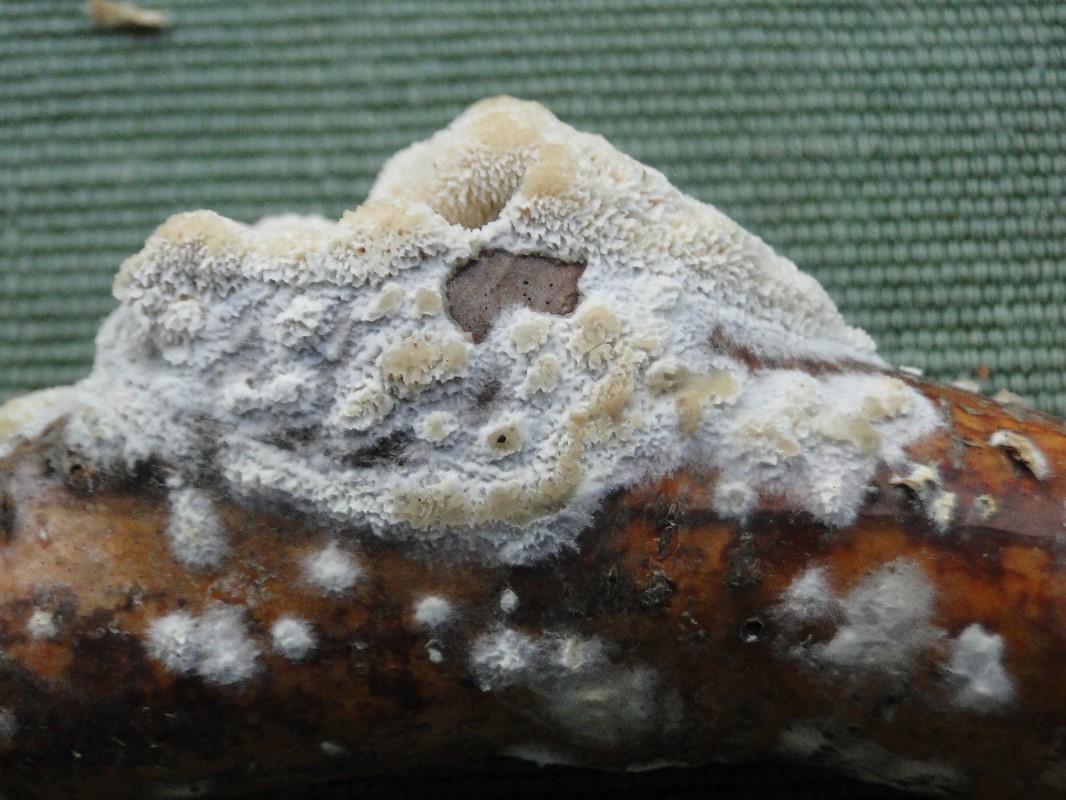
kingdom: Fungi
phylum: Basidiomycota
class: Agaricomycetes
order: Hymenochaetales
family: Schizoporaceae
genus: Schizopora
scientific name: Schizopora paradoxa
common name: hvid tandsvamp
